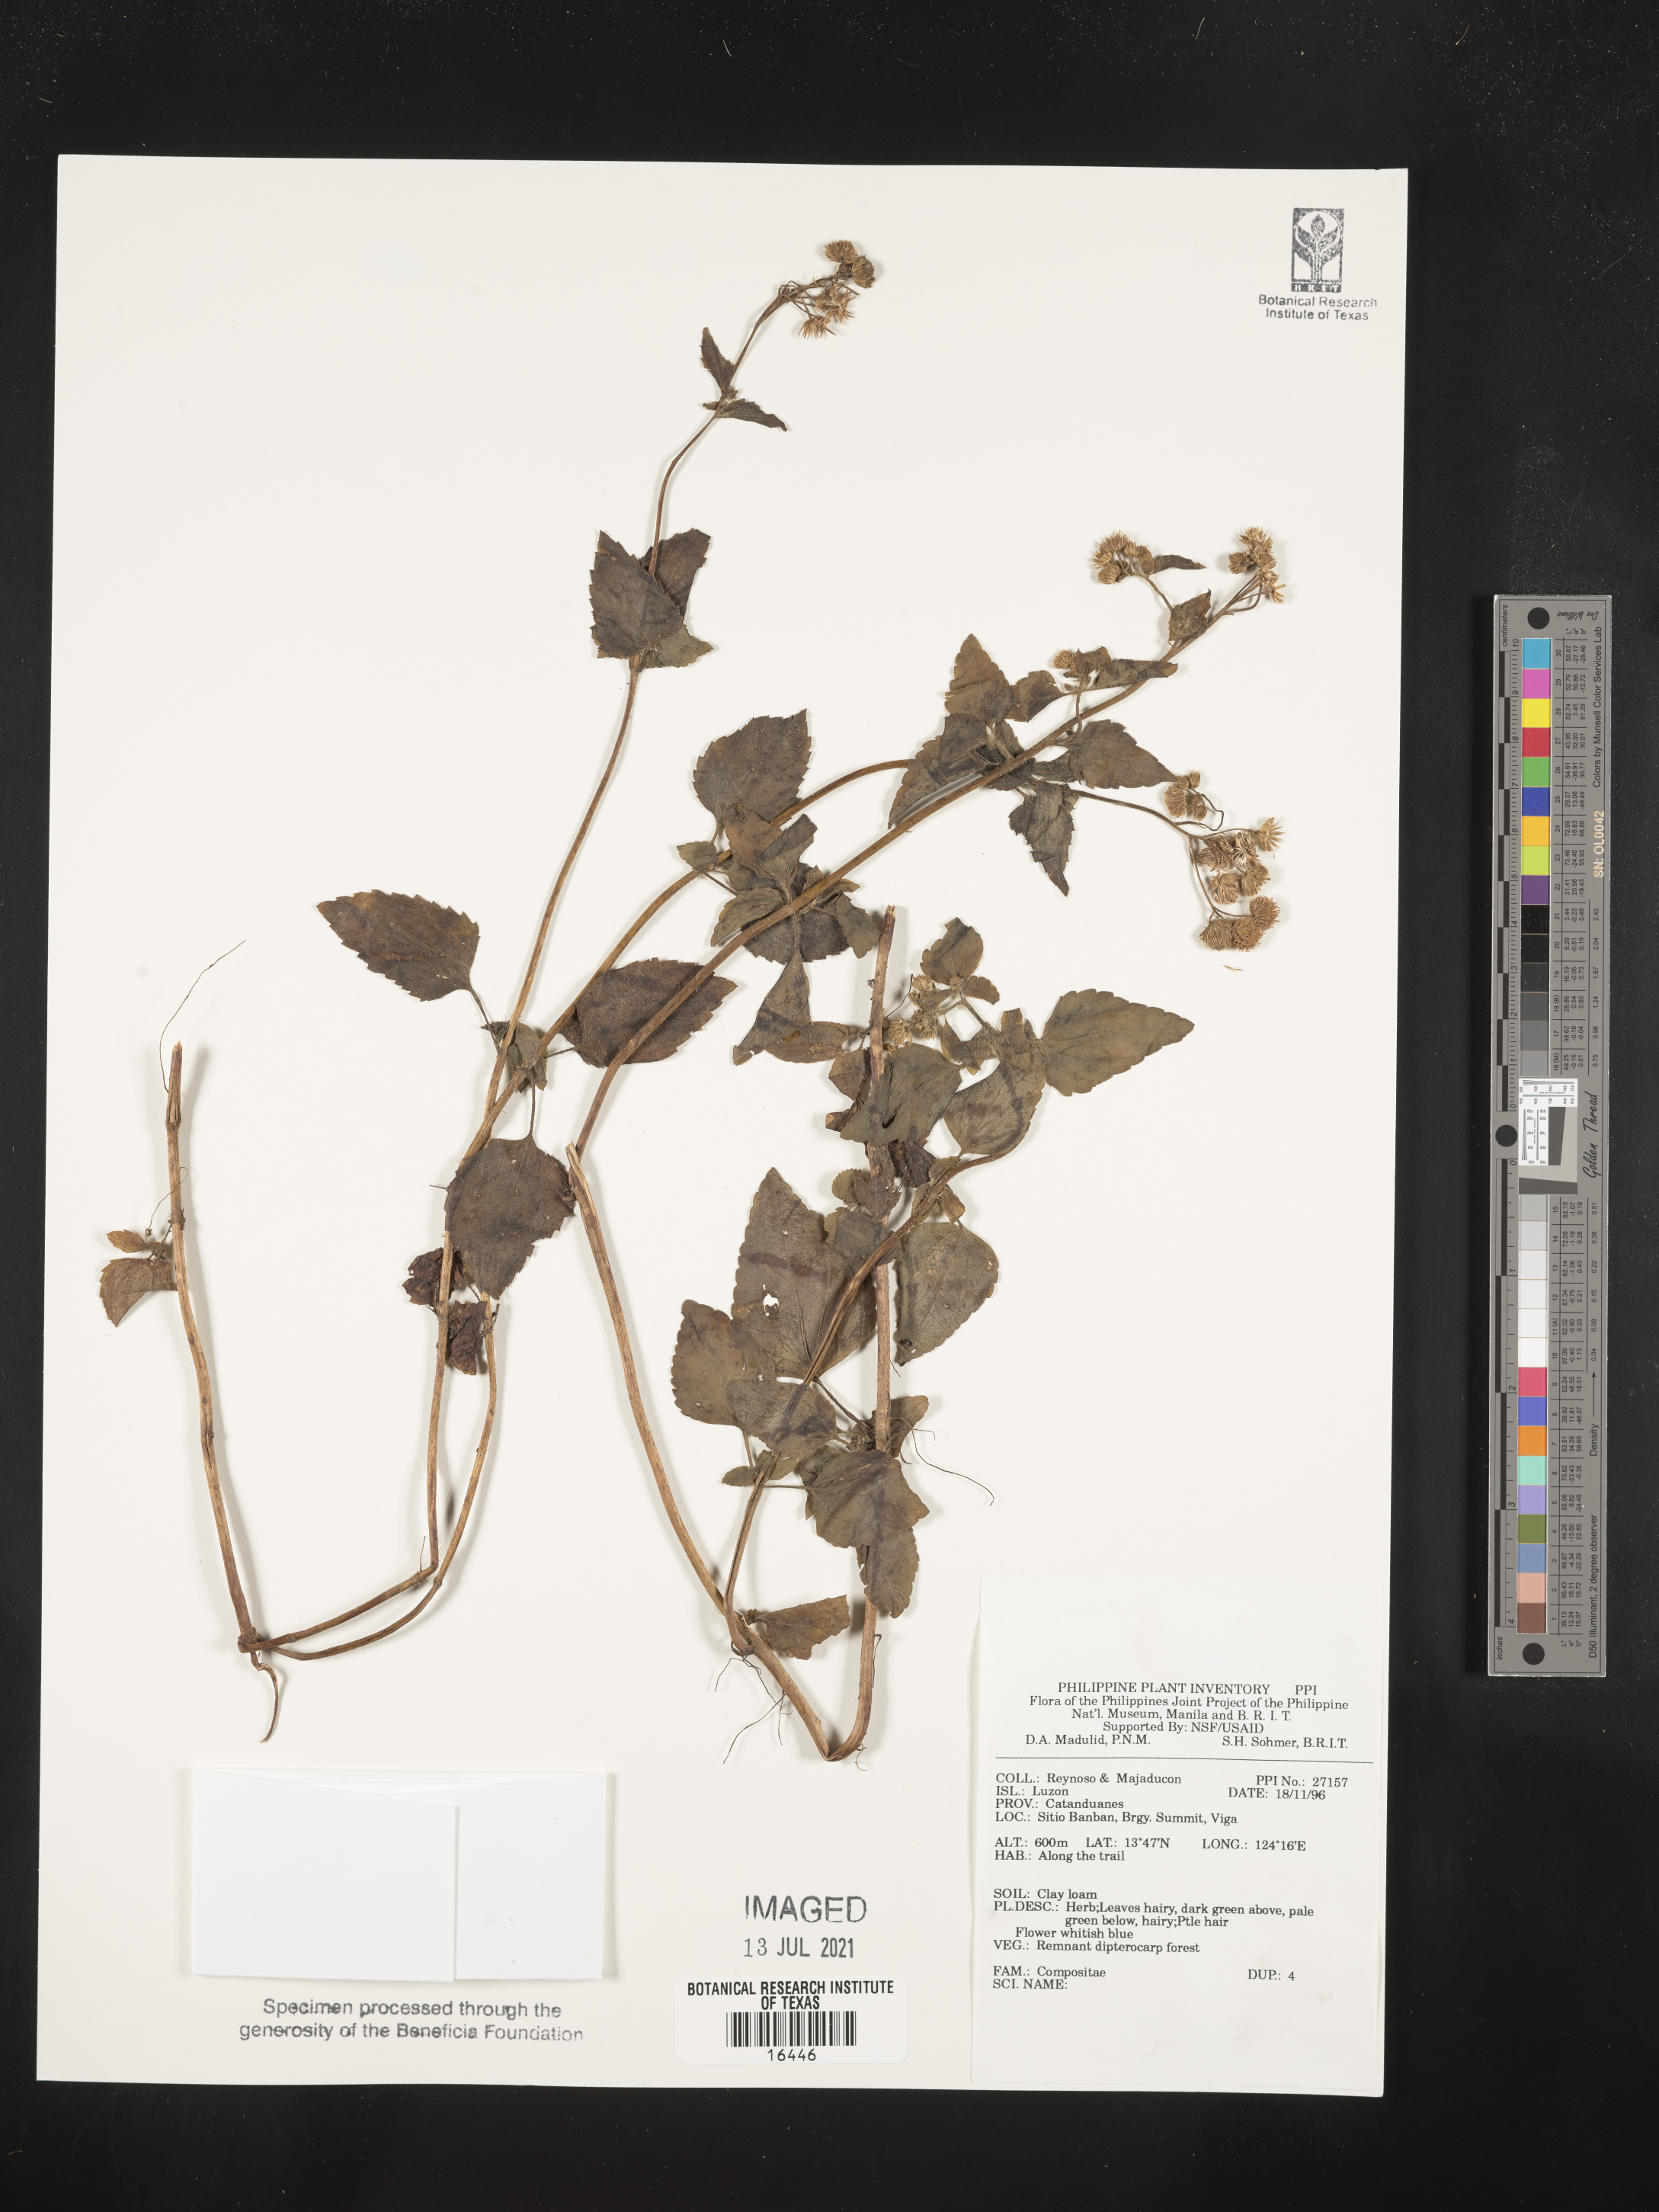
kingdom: Plantae
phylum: Tracheophyta
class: Magnoliopsida
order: Asterales
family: Asteraceae
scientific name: Asteraceae
